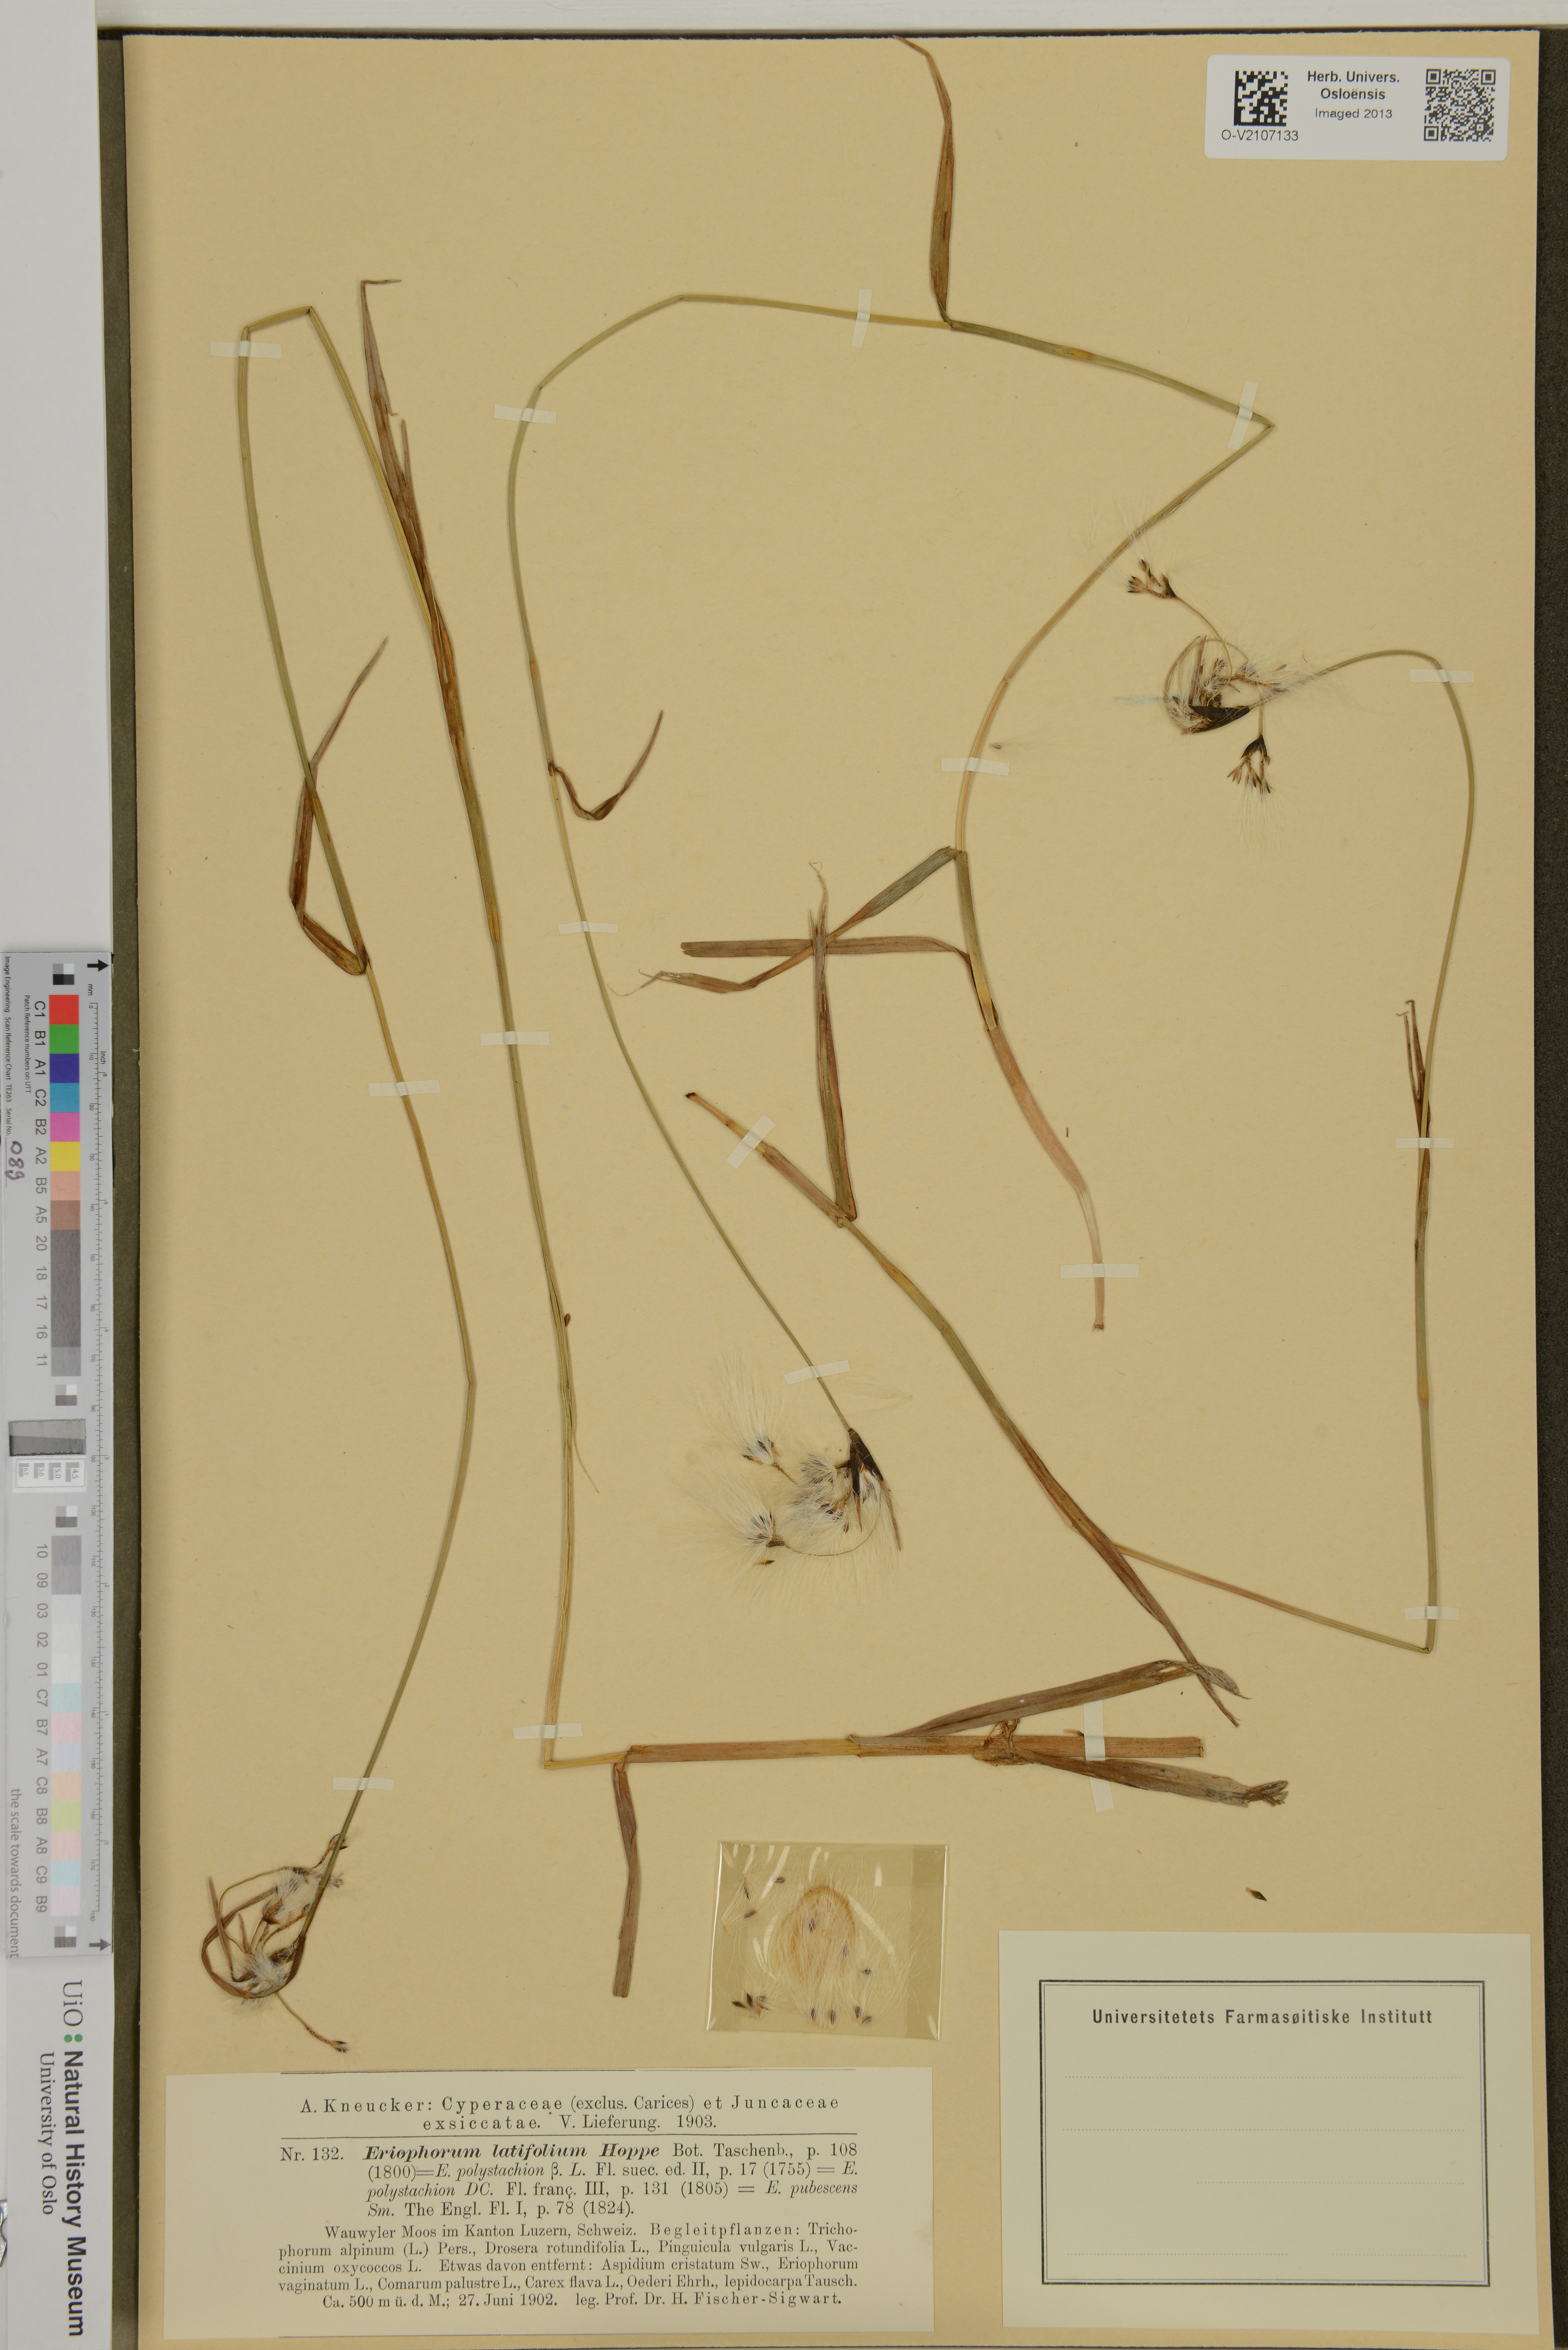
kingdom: Plantae
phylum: Tracheophyta
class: Liliopsida
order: Poales
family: Cyperaceae
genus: Eriophorum
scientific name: Eriophorum latifolium
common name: Broad-leaved cottongrass
